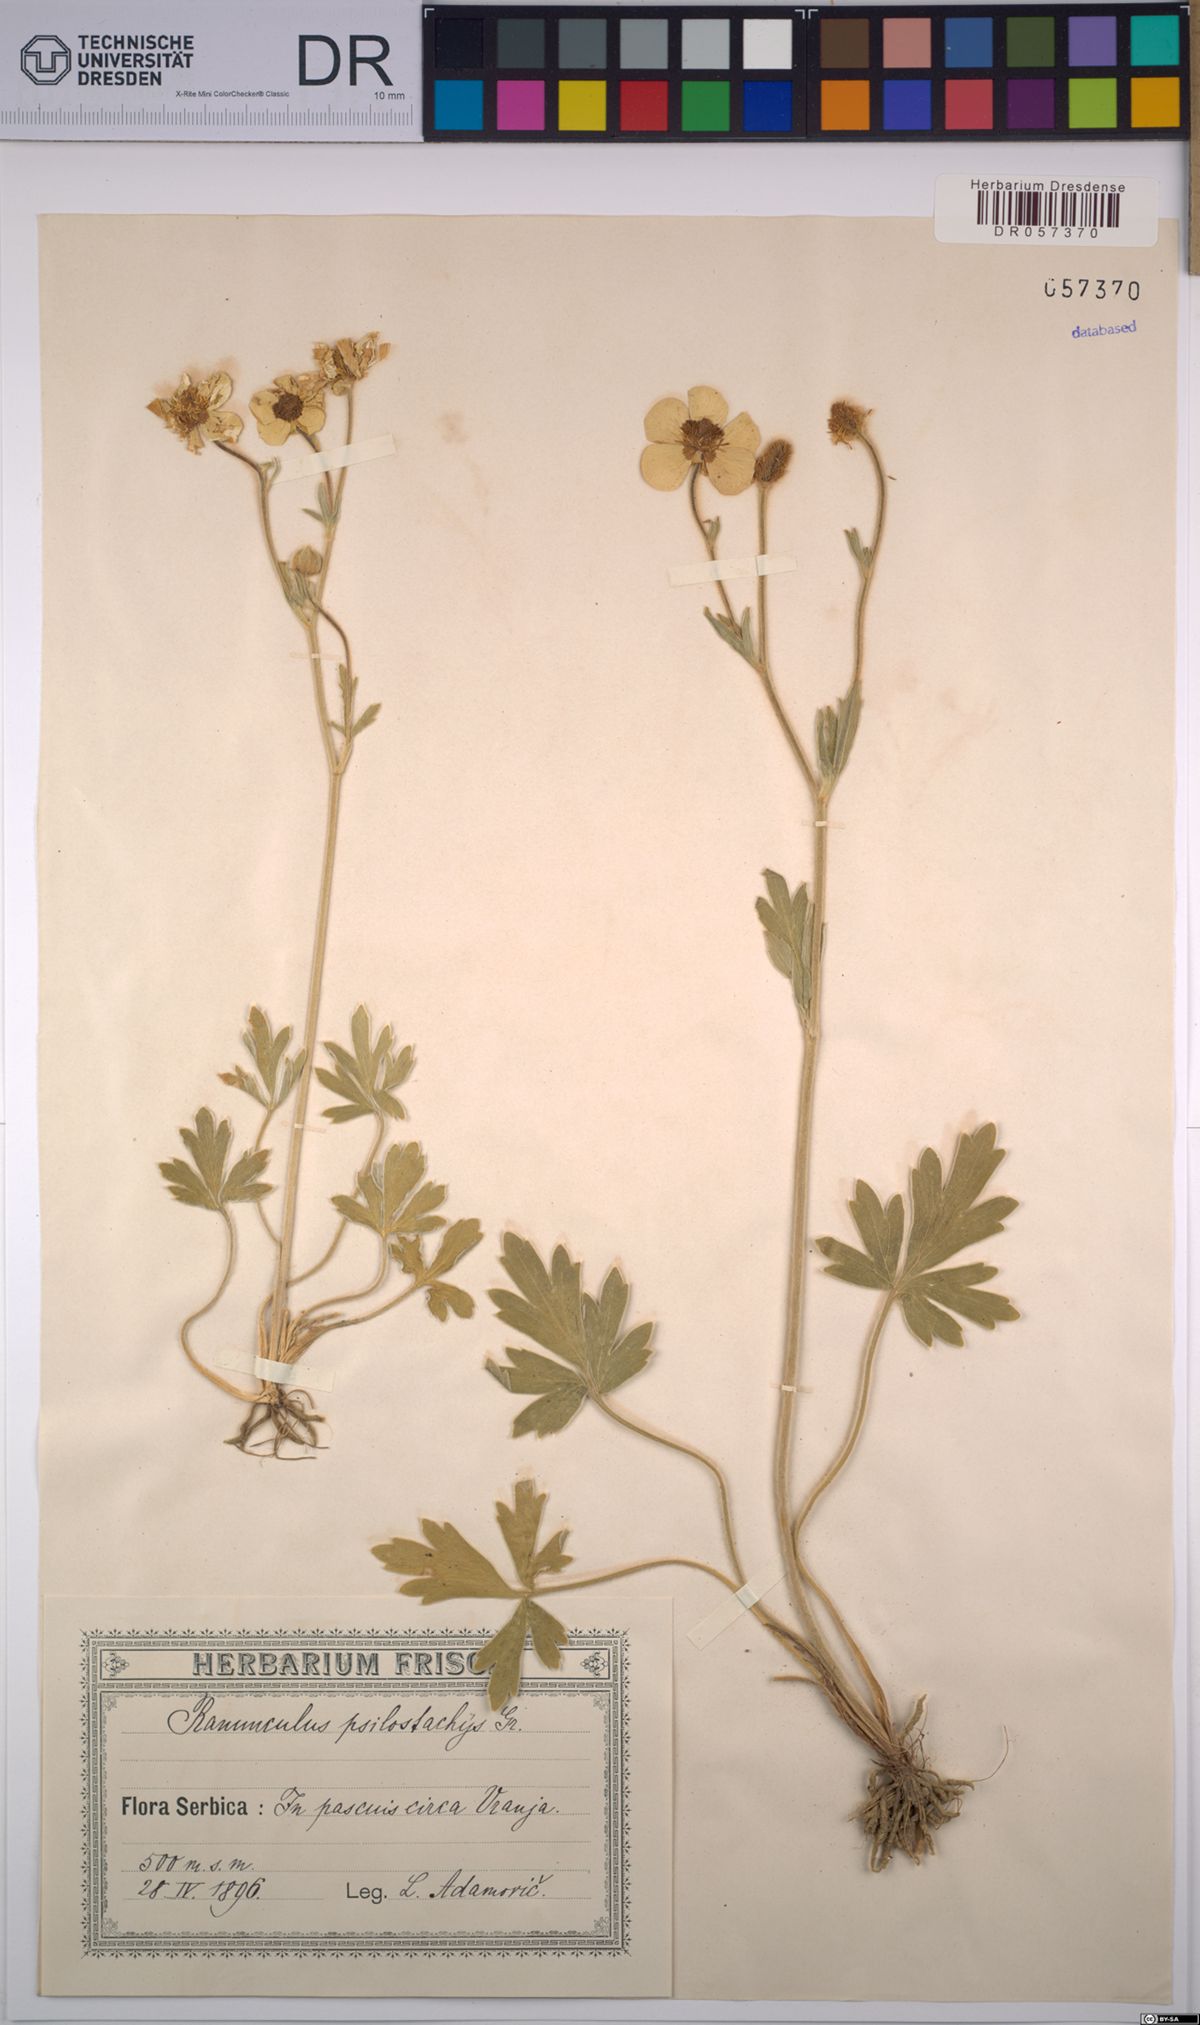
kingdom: Plantae
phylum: Tracheophyta
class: Magnoliopsida
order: Ranunculales
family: Ranunculaceae
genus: Ranunculus
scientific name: Ranunculus psilostachys
